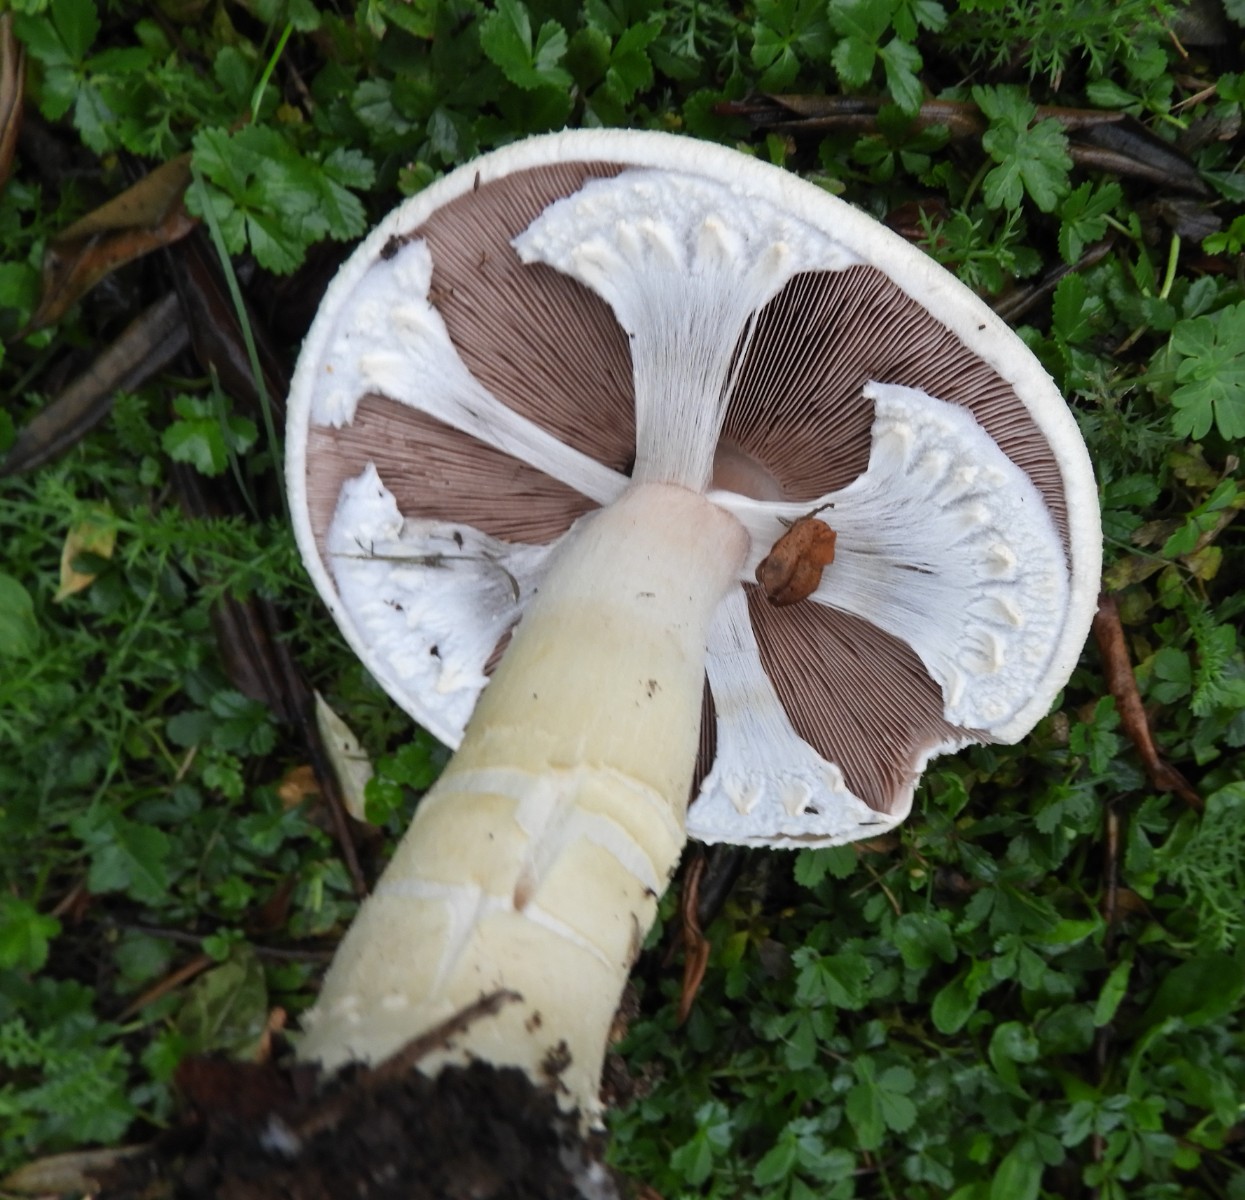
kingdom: Fungi
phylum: Basidiomycota
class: Agaricomycetes
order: Agaricales
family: Agaricaceae
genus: Agaricus
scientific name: Agaricus arvensis
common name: ager-champignon
